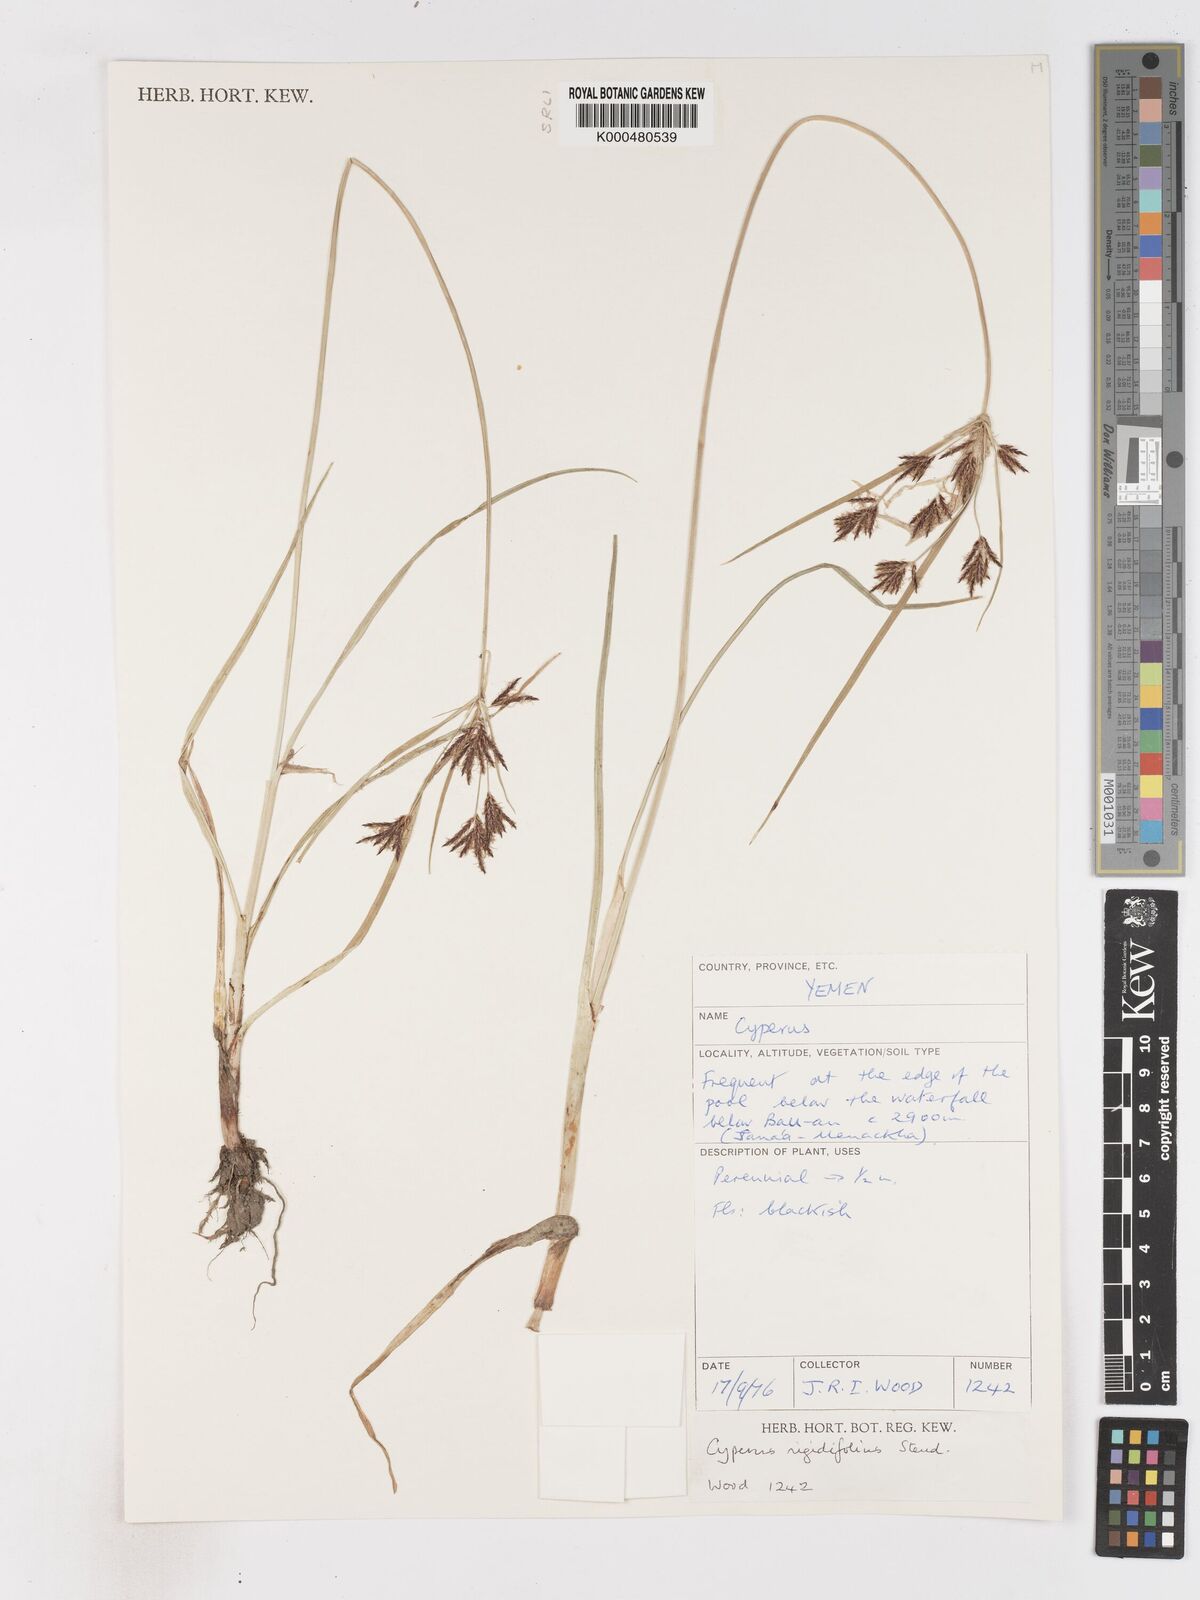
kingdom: Plantae
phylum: Tracheophyta
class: Liliopsida
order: Poales
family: Cyperaceae
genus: Cyperus
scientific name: Cyperus rigidifolius
